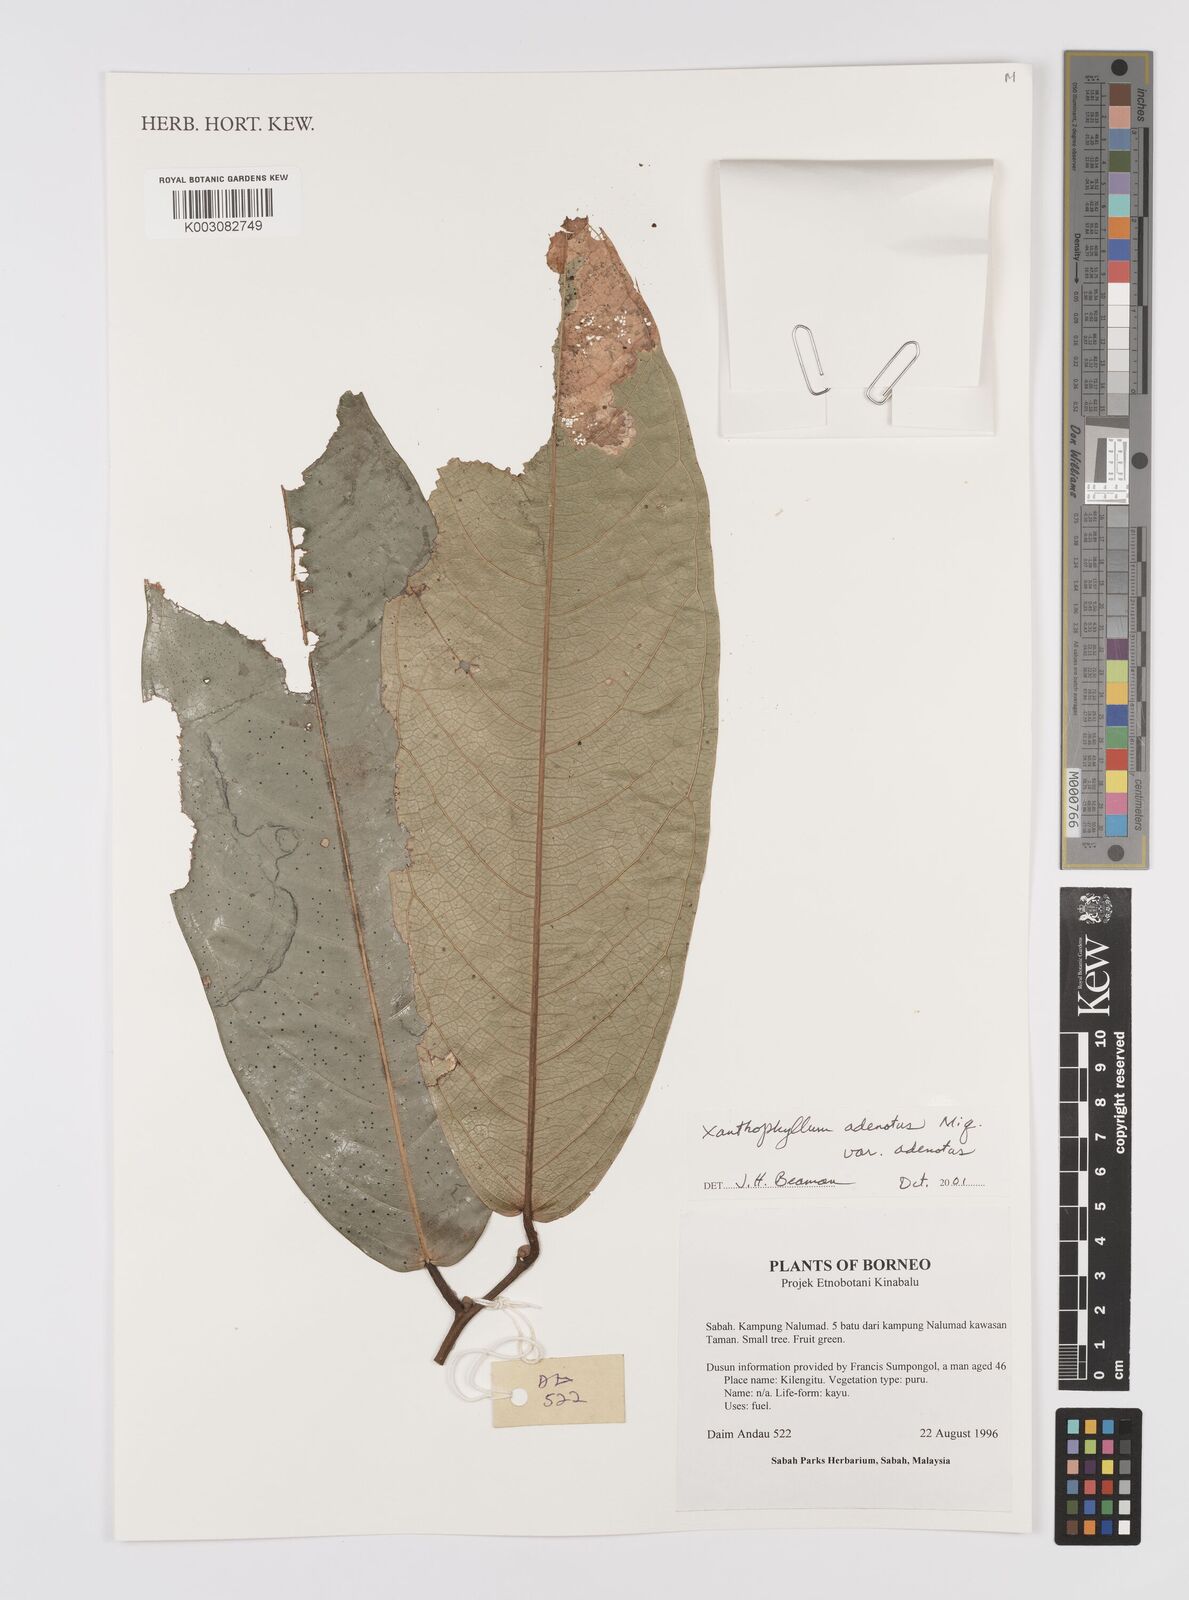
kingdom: Plantae
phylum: Tracheophyta
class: Magnoliopsida
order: Fabales
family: Polygalaceae
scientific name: Polygalaceae
